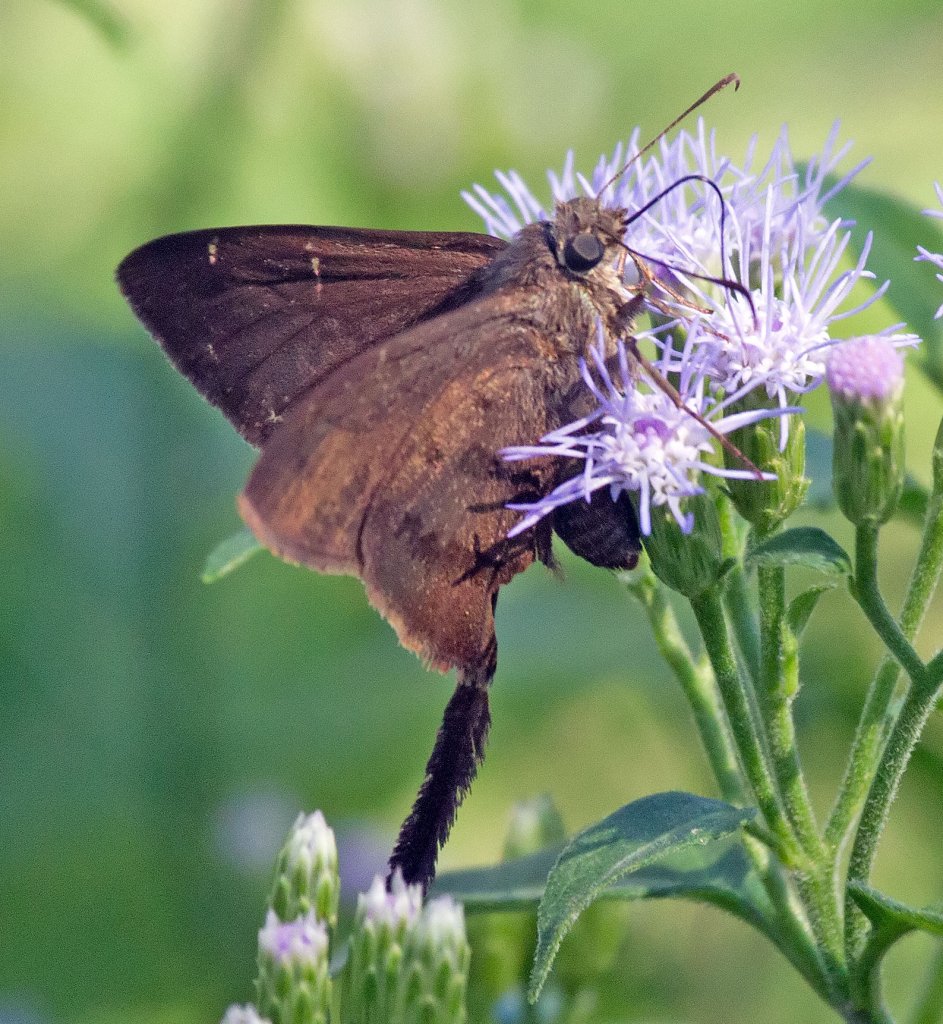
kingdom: Animalia
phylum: Arthropoda
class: Insecta
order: Lepidoptera
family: Hesperiidae
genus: Urbanus
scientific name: Urbanus procne
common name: Brown Longtail
